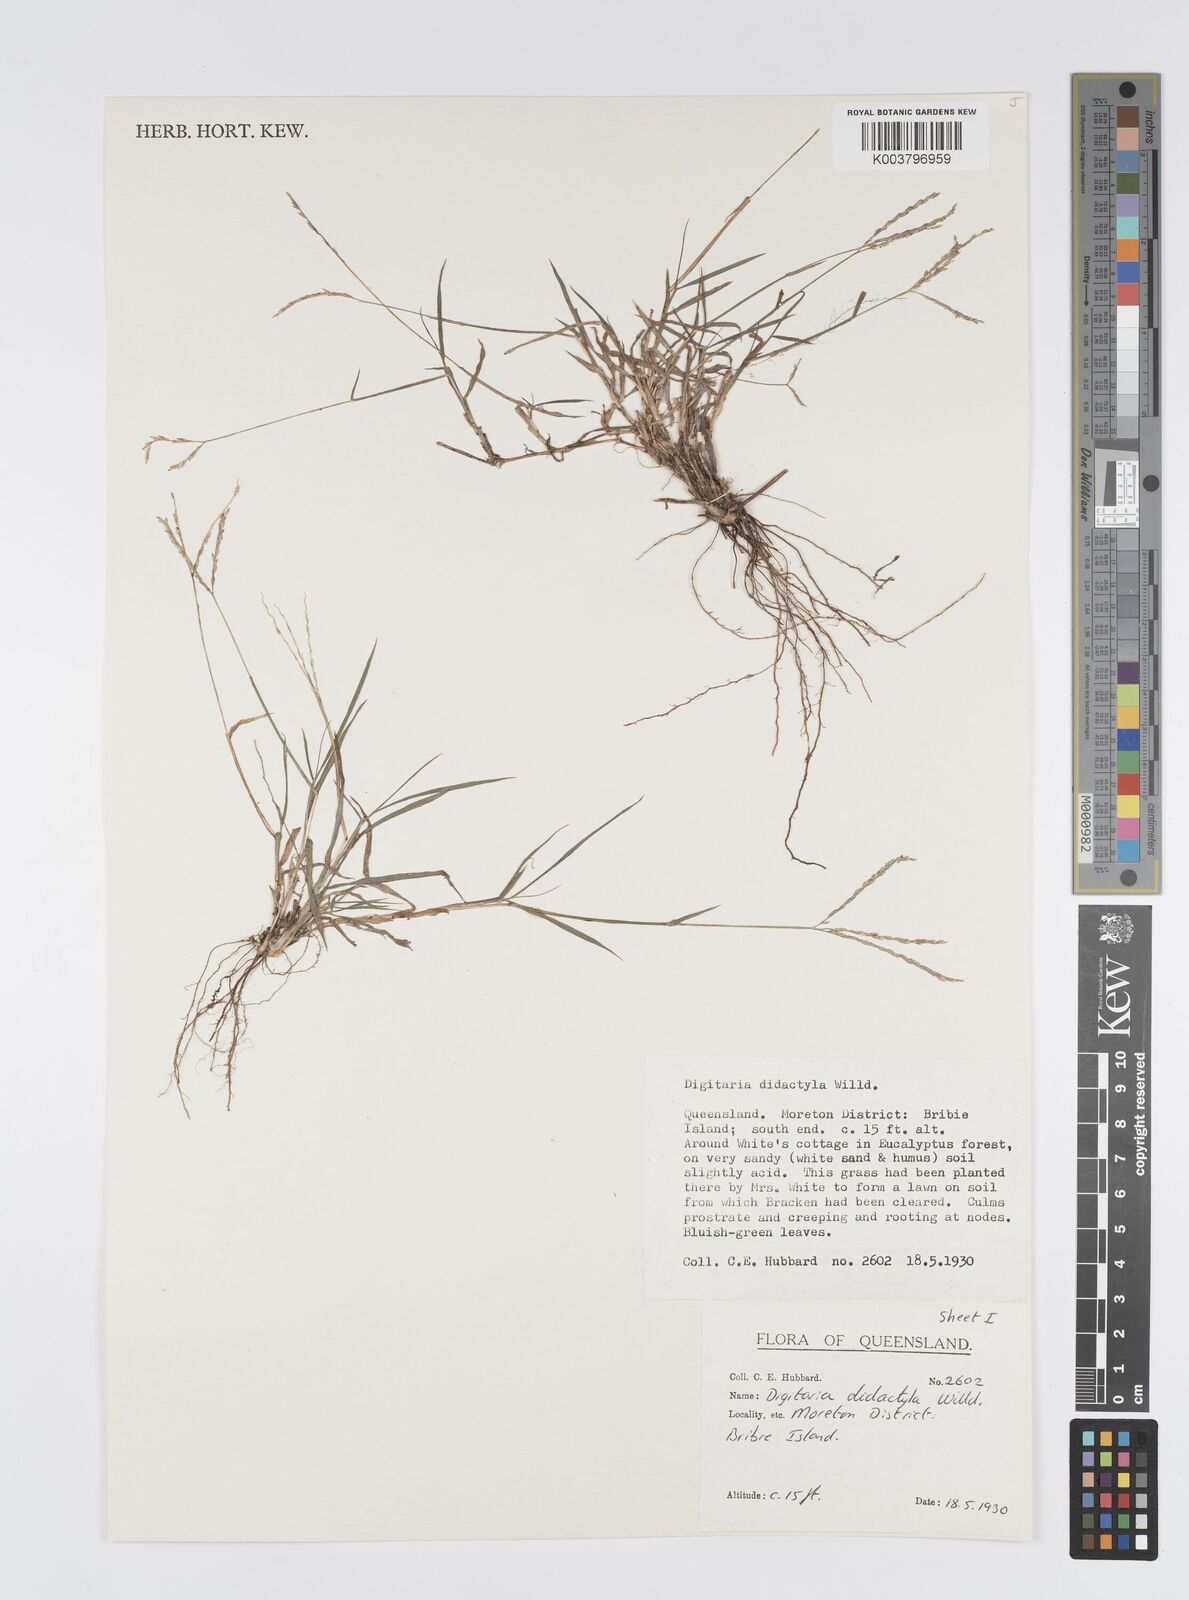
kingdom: Plantae
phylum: Tracheophyta
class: Liliopsida
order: Poales
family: Poaceae
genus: Digitaria
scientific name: Digitaria didactyla
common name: Blue couch
